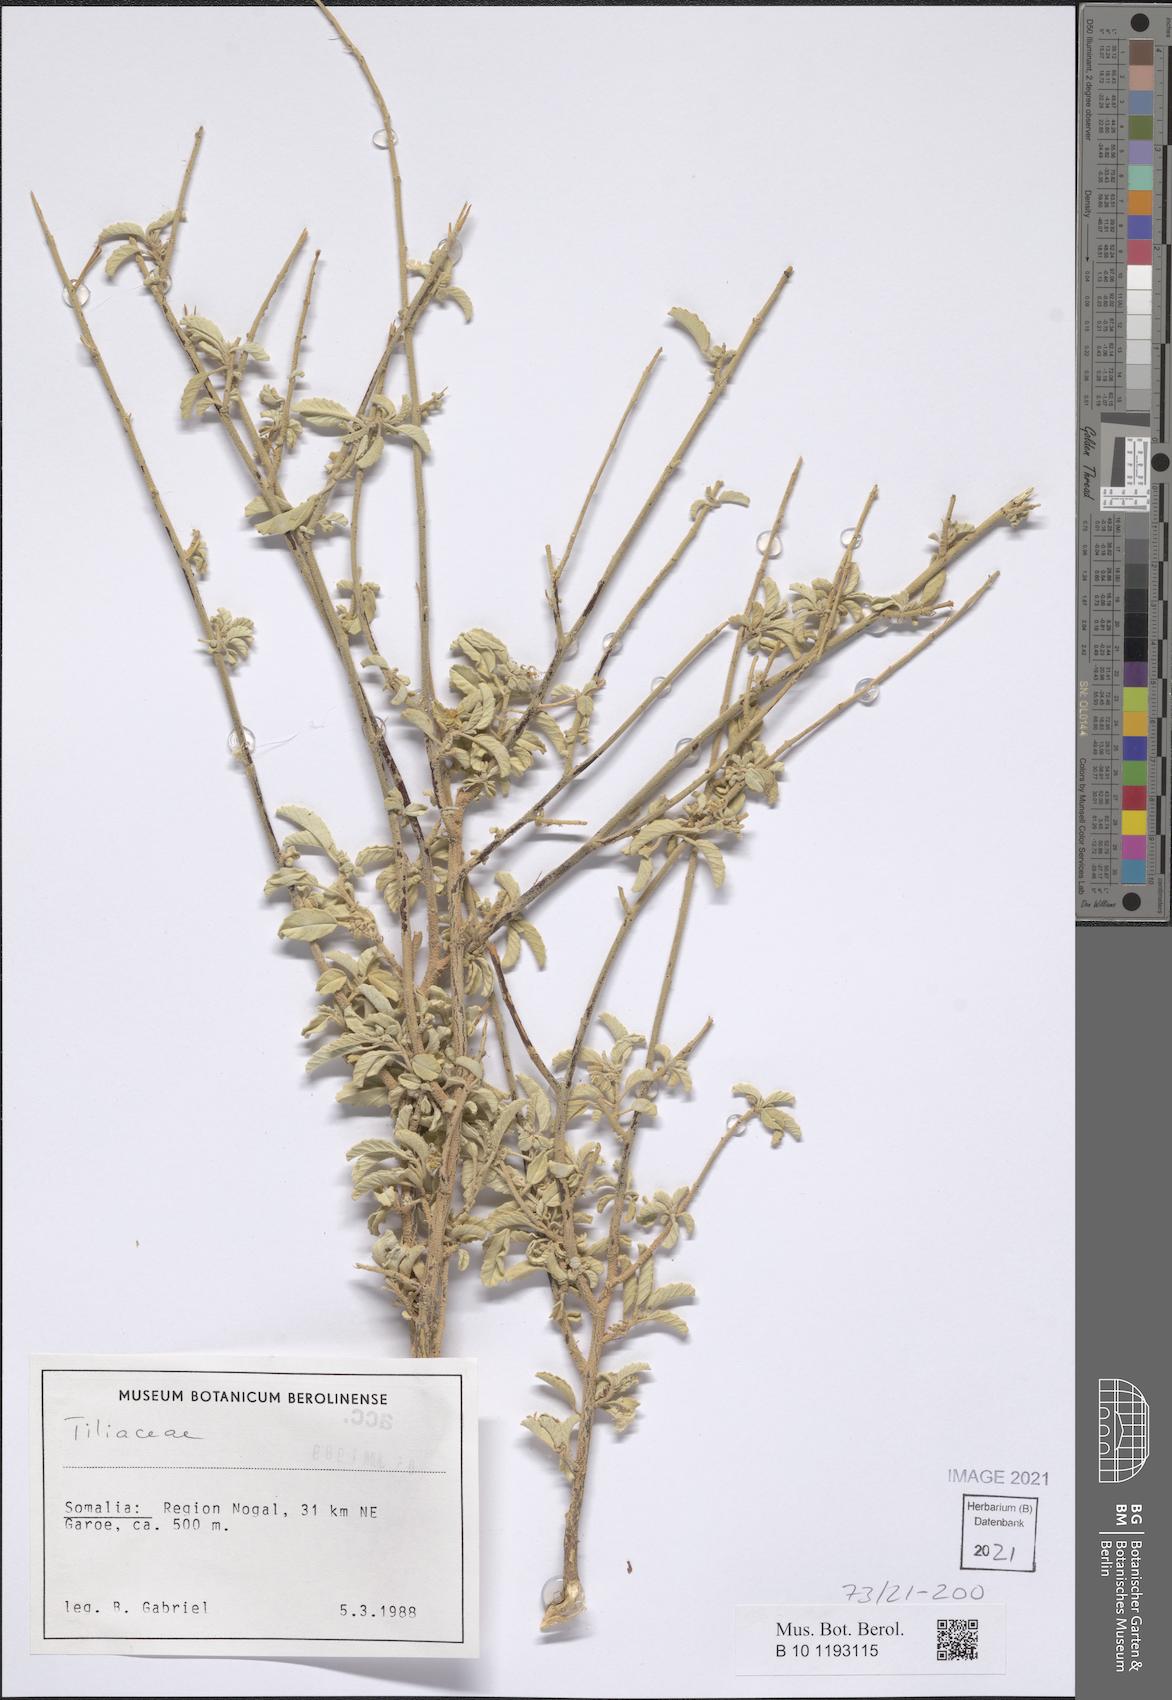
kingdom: Plantae
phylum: Tracheophyta
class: Magnoliopsida
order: Malvales
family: Malvaceae
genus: Corchorus
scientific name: Corchorus cinerascens
